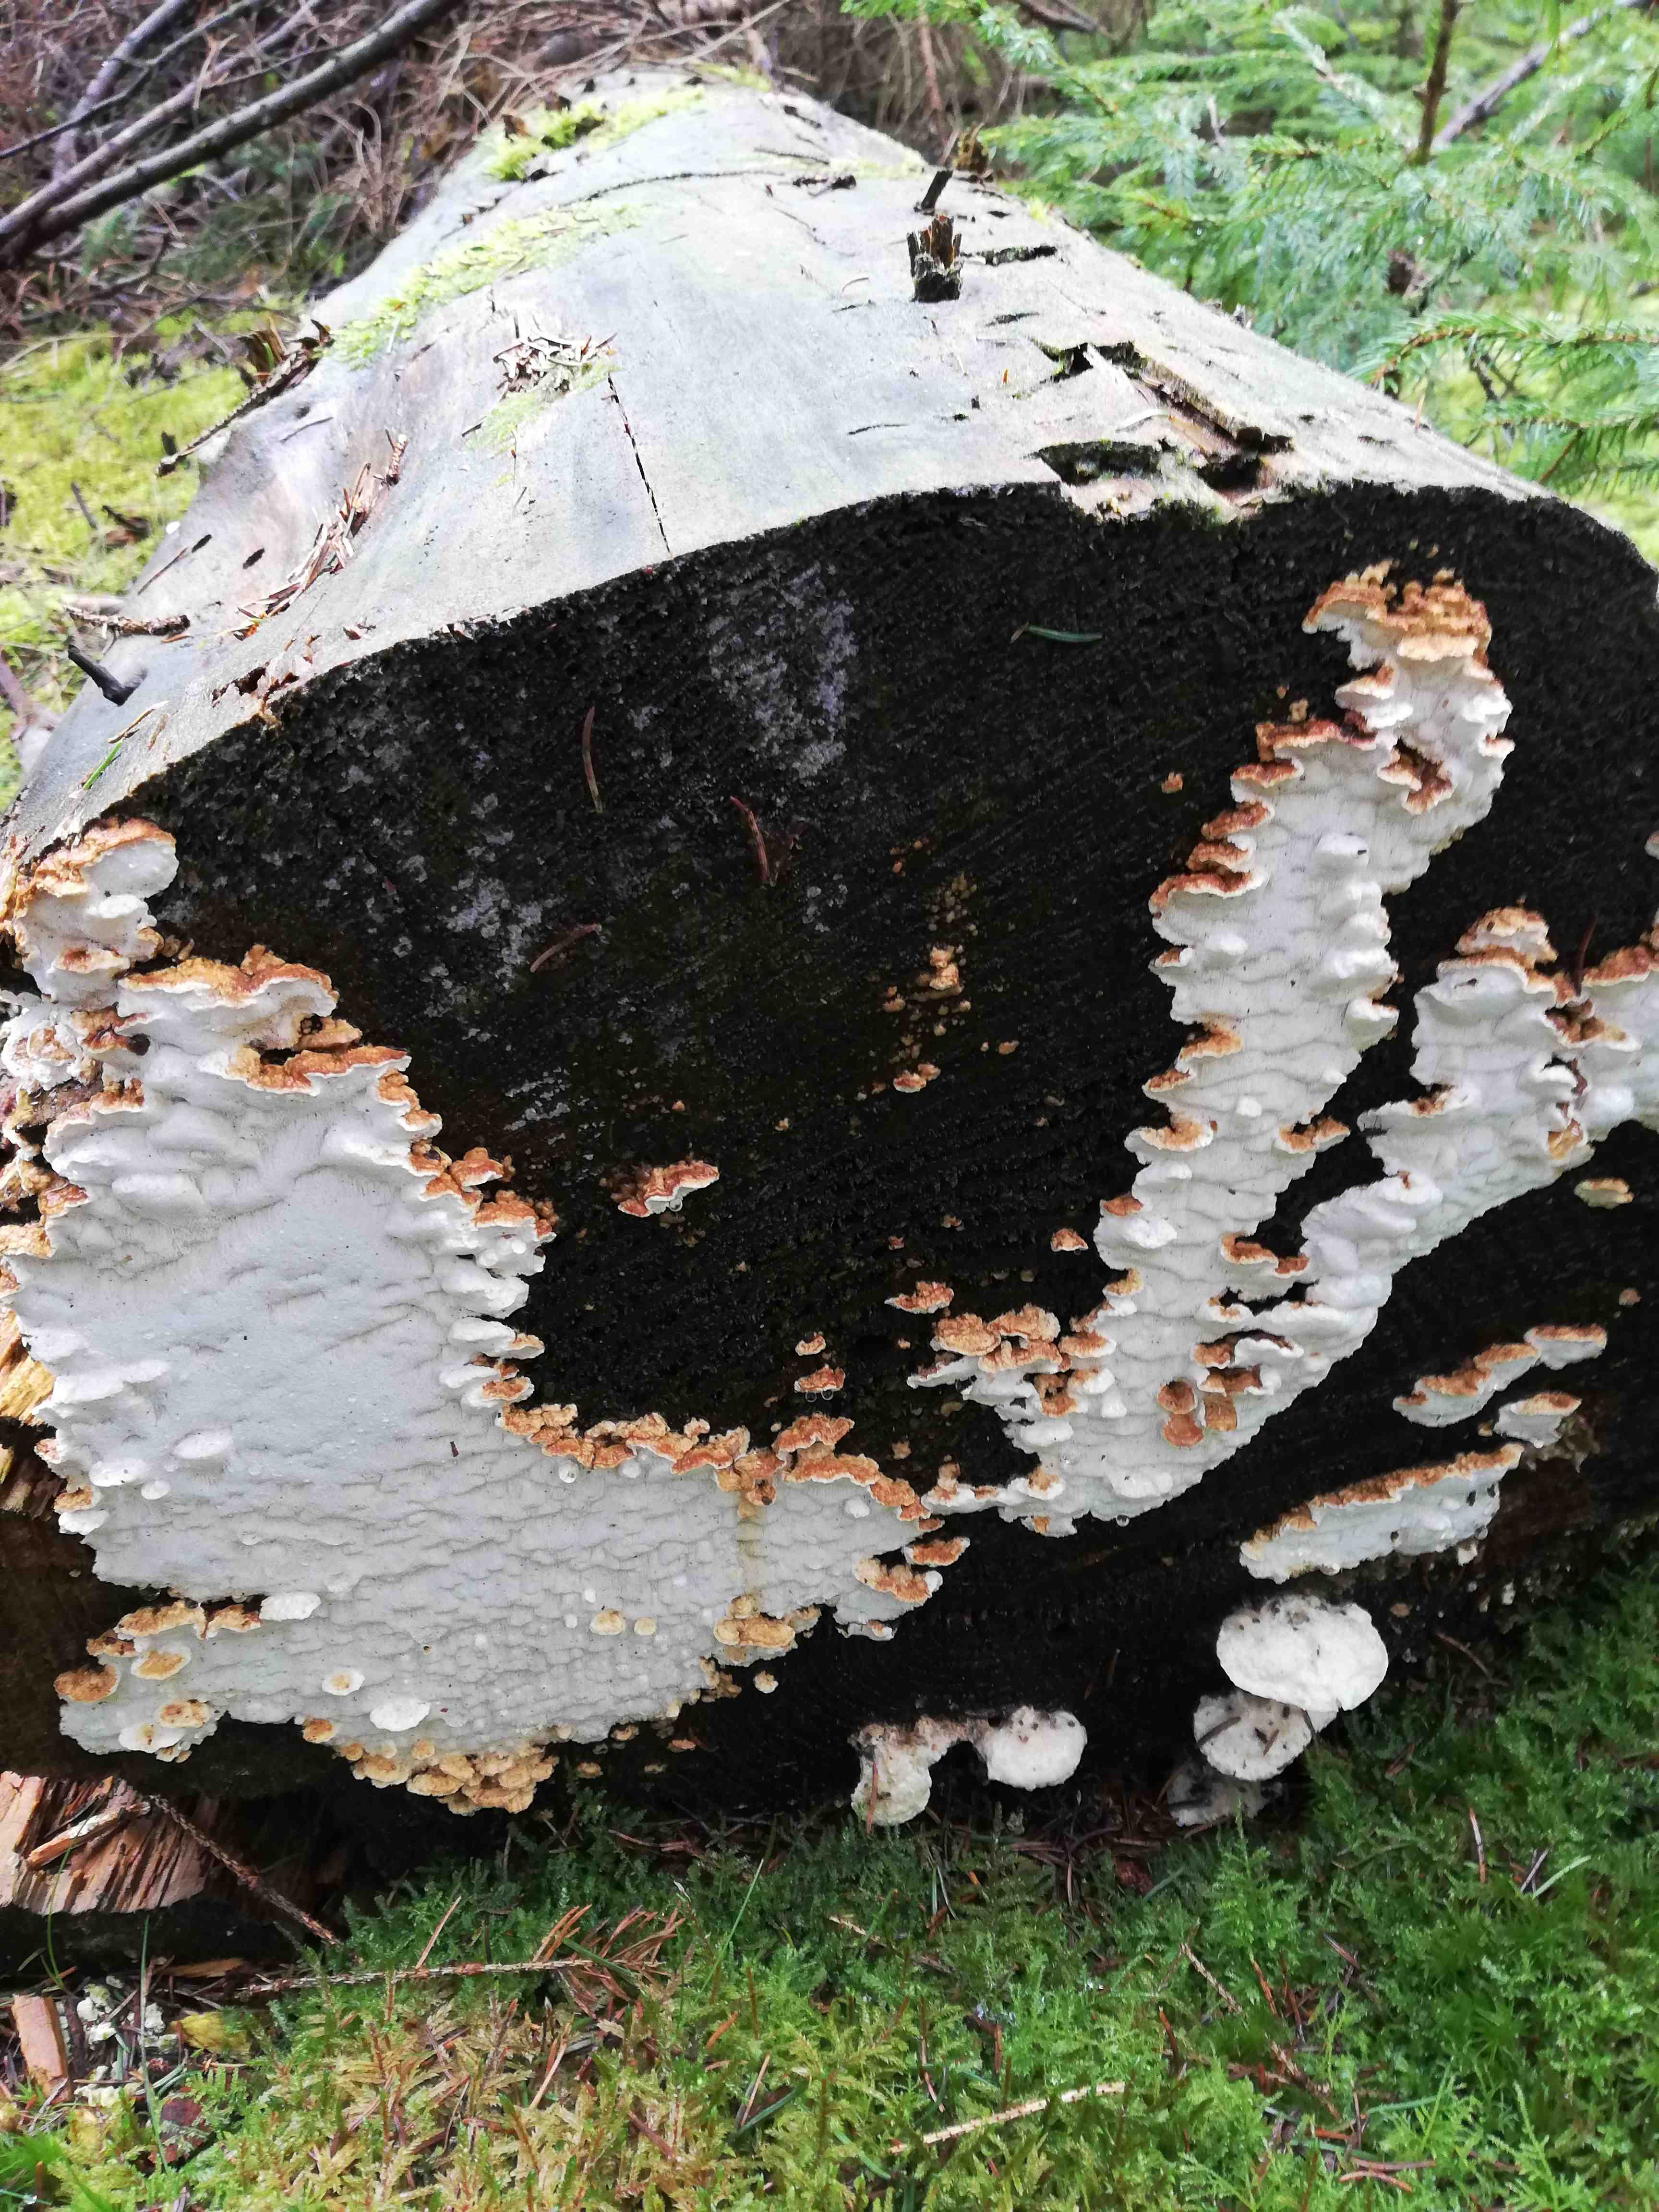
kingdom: Fungi
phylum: Basidiomycota
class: Agaricomycetes
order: Polyporales
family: Fomitopsidaceae
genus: Neoantrodia
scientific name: Neoantrodia serialis
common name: række-sejporesvamp
